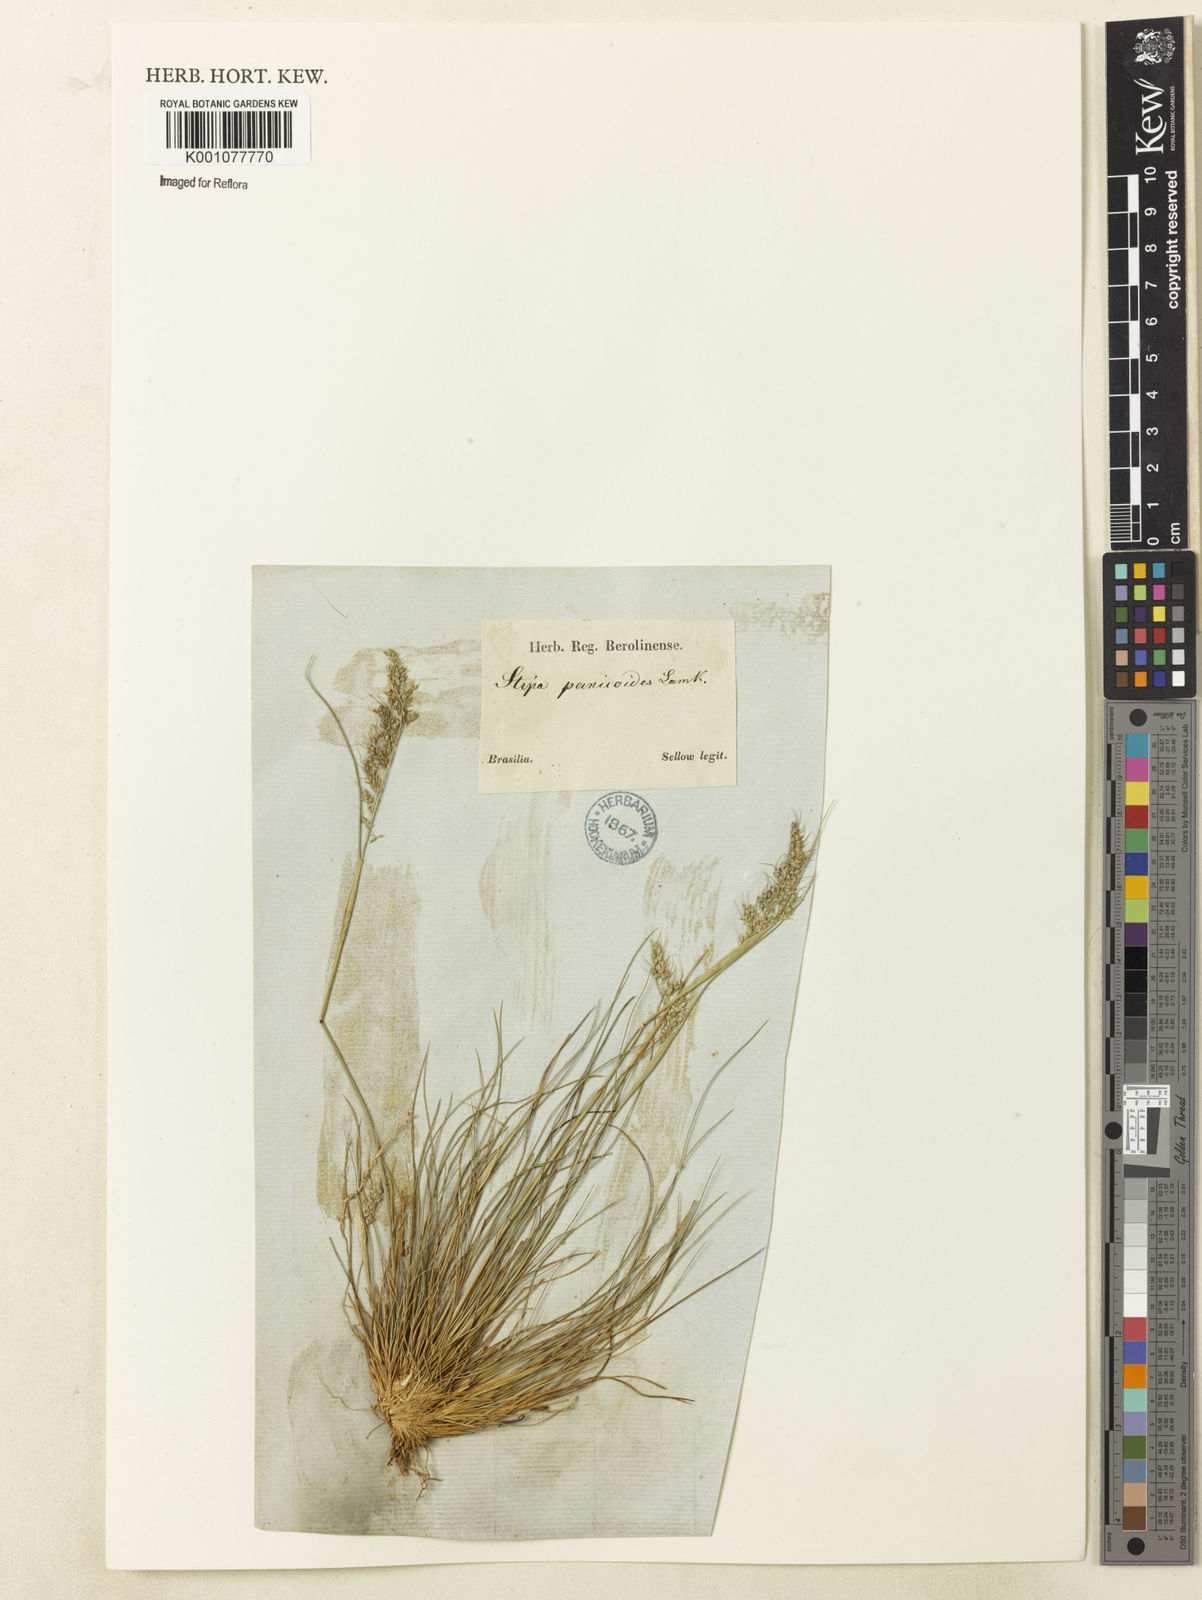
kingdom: Plantae
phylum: Tracheophyta
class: Liliopsida
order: Poales
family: Poaceae
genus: Piptochaetium
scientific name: Piptochaetium montevidense
